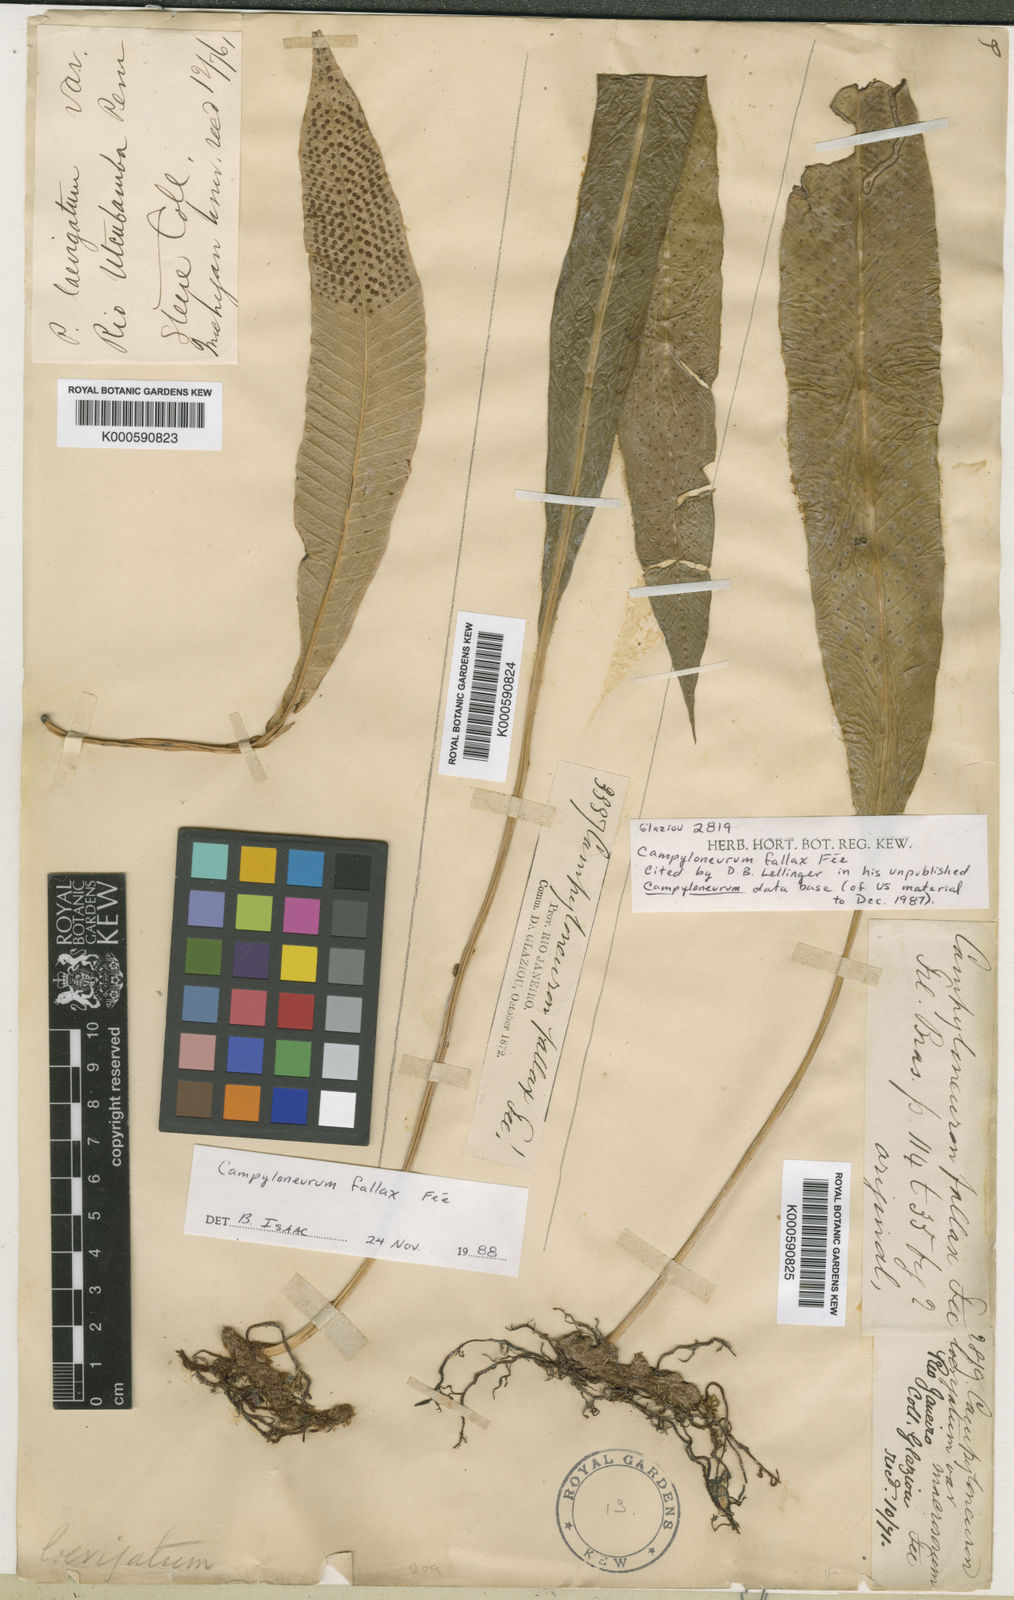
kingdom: Plantae
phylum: Tracheophyta
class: Polypodiopsida
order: Polypodiales
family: Polypodiaceae
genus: Campyloneurum
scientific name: Campyloneurum
